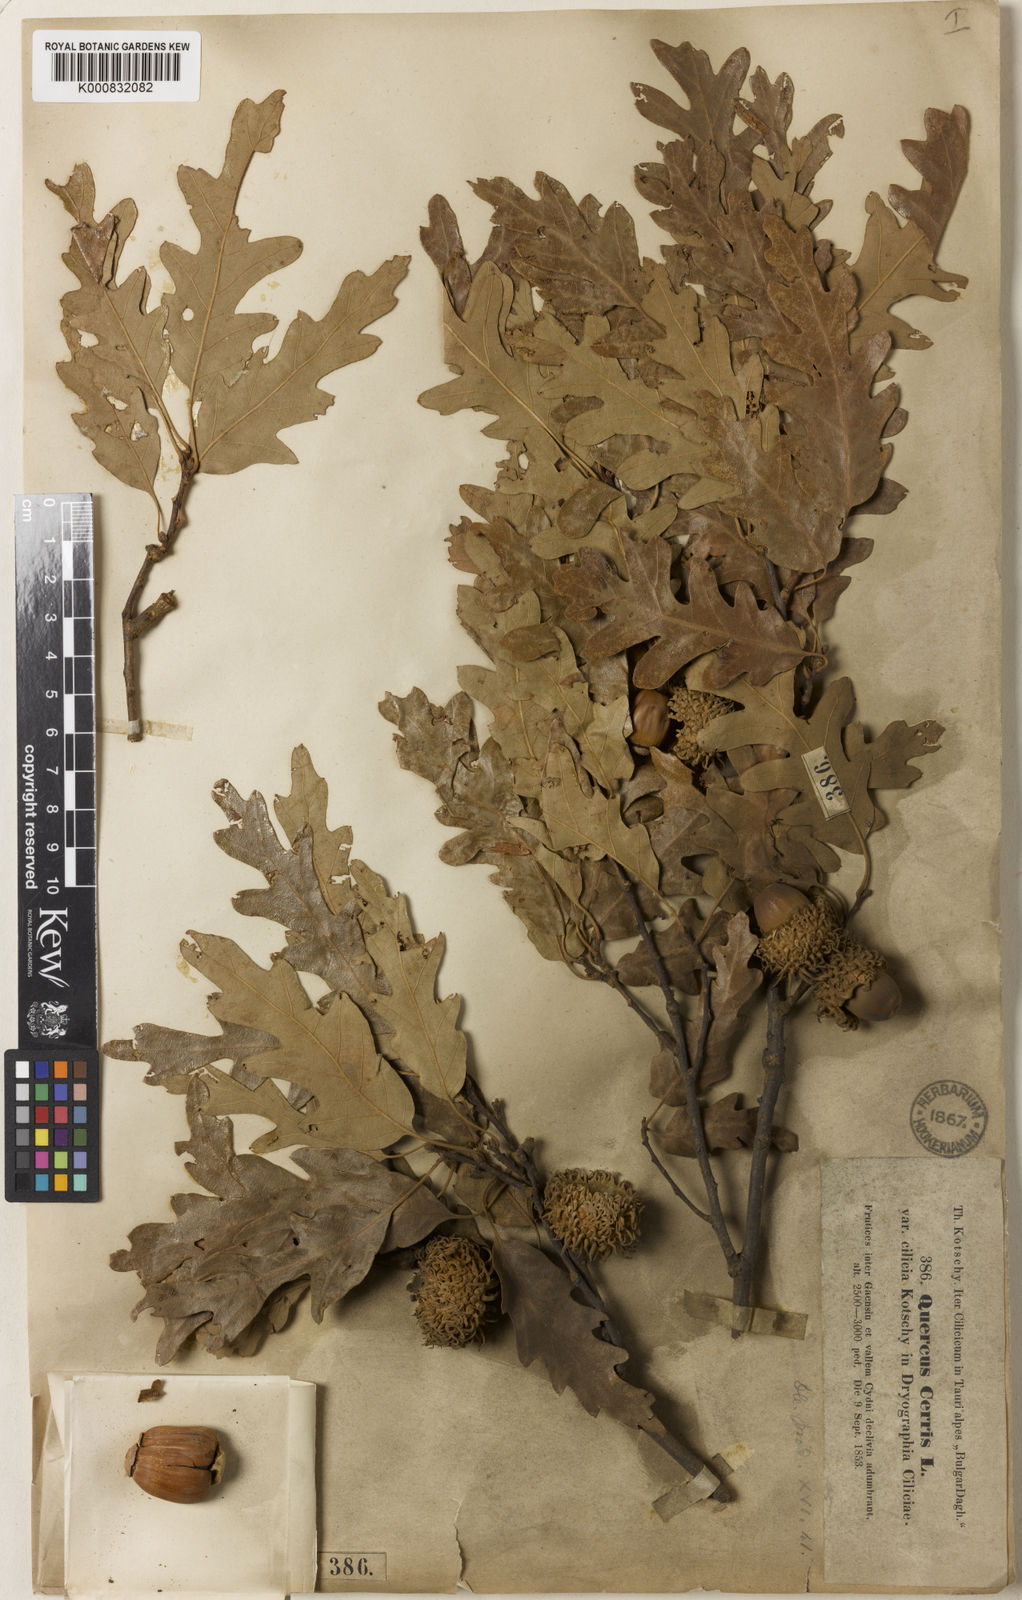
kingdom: Plantae
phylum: Tracheophyta
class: Magnoliopsida
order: Fagales
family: Fagaceae
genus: Quercus
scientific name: Quercus cerris
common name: Turkey oak
